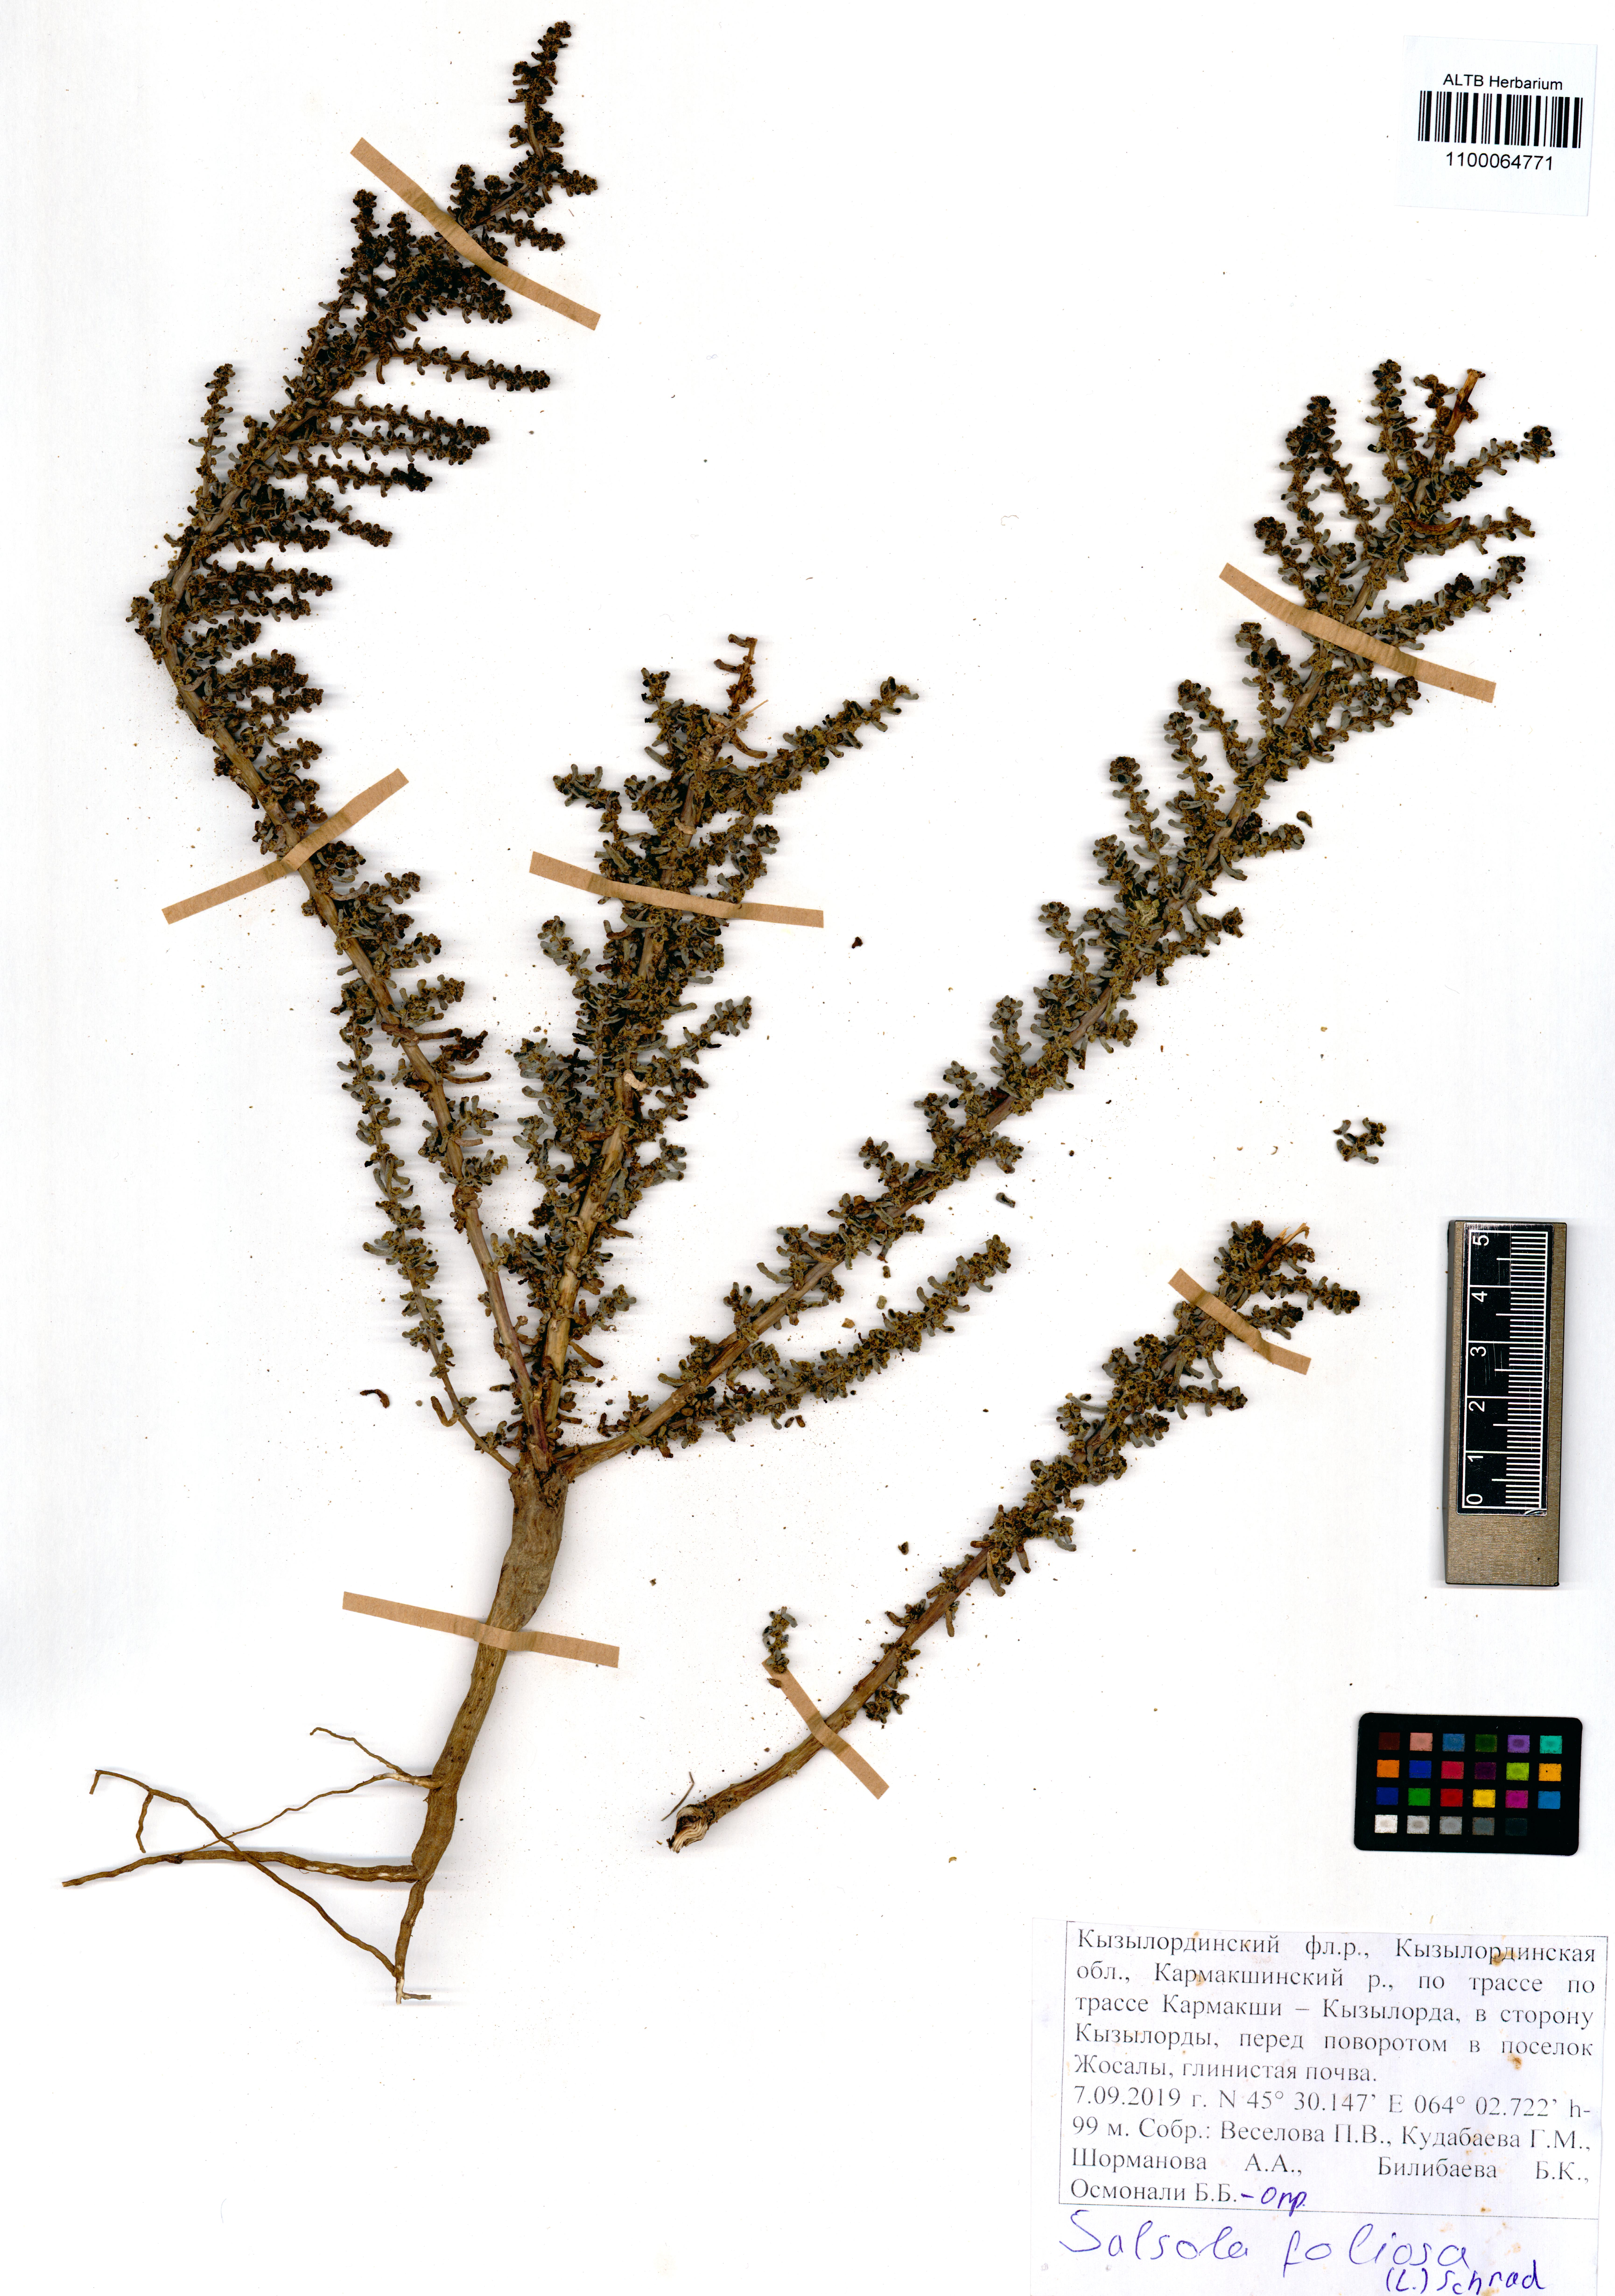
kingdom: Plantae
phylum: Tracheophyta
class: Magnoliopsida
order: Caryophyllales
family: Amaranthaceae
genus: Soda
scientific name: Soda foliosa
